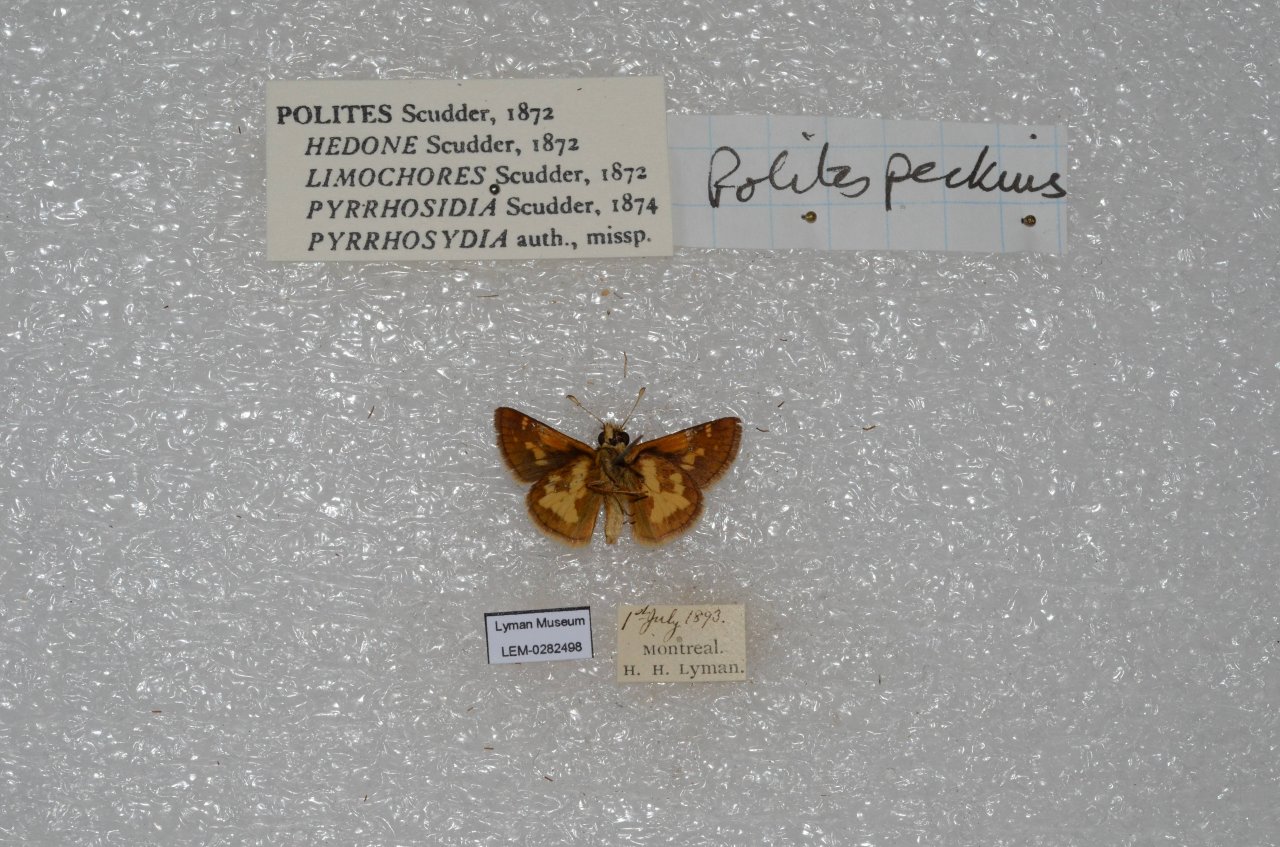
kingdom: Animalia
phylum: Arthropoda
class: Insecta
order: Lepidoptera
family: Hesperiidae
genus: Polites
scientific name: Polites coras
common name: Peck's Skipper
